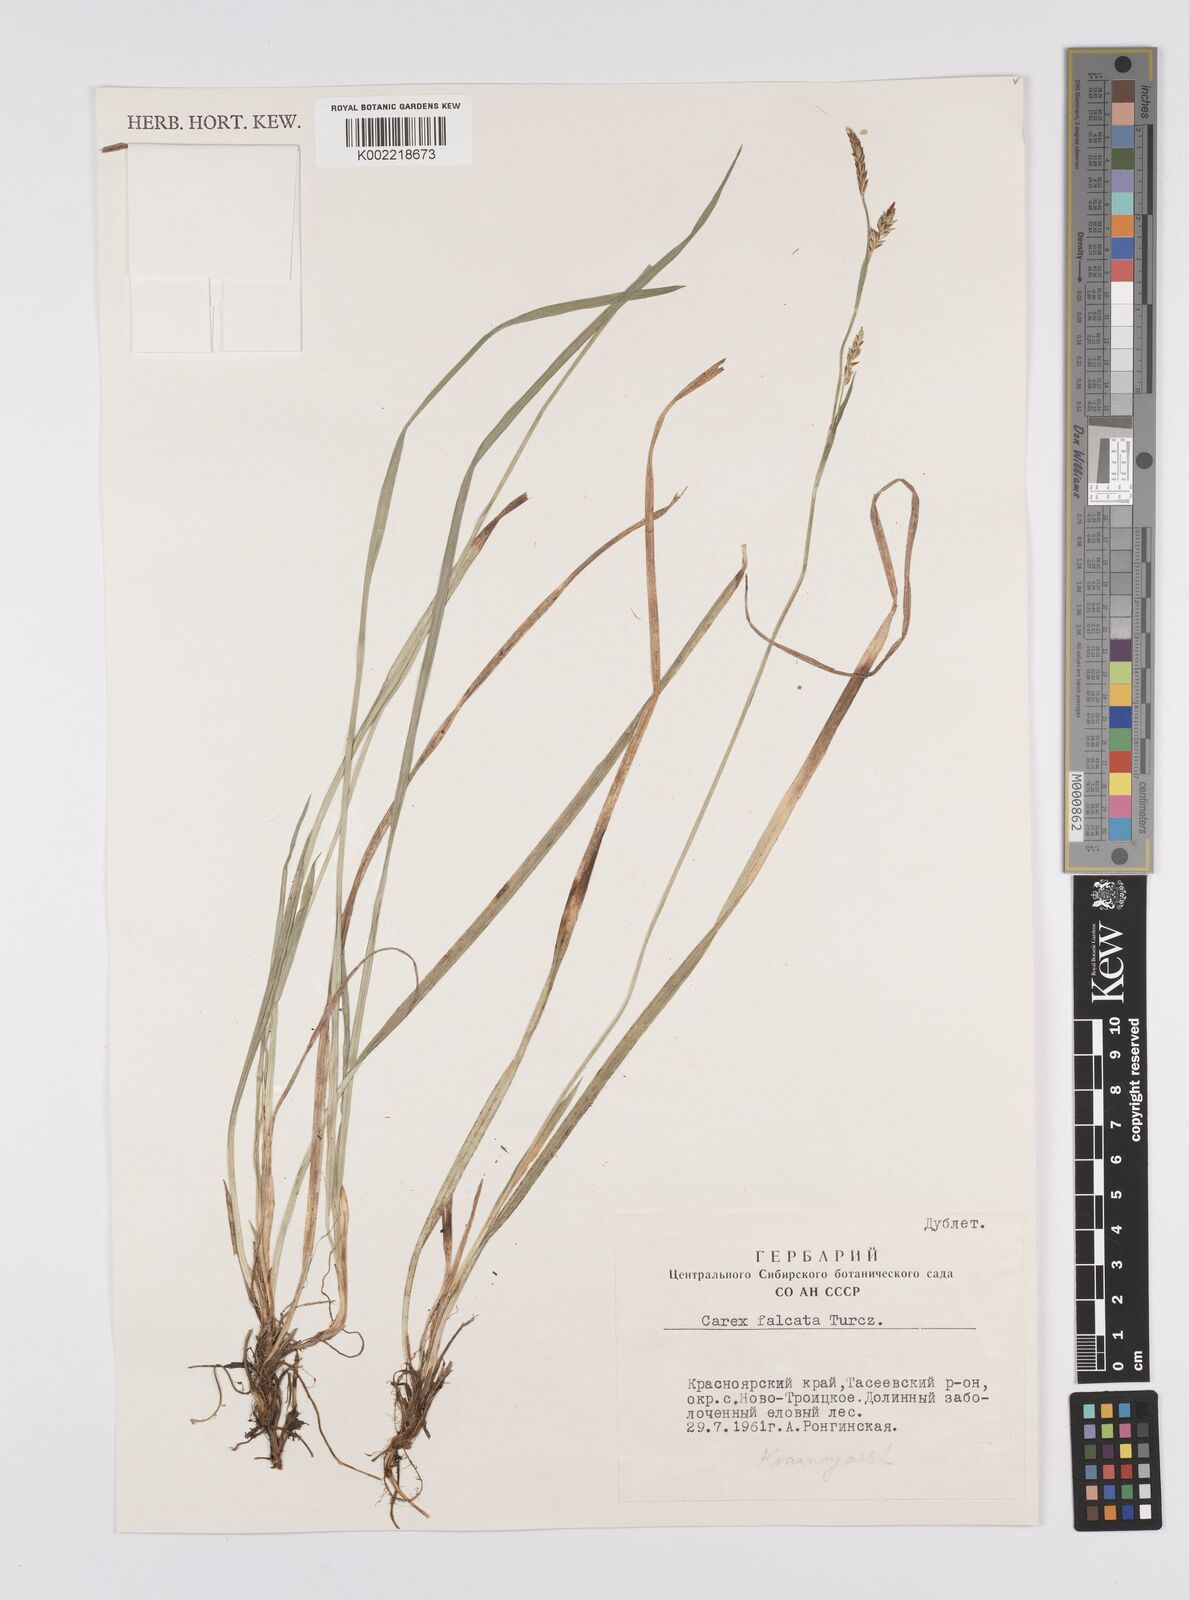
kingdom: Plantae
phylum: Tracheophyta
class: Liliopsida
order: Poales
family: Cyperaceae
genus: Carex
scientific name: Carex vaginata
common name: Sheathed sedge
